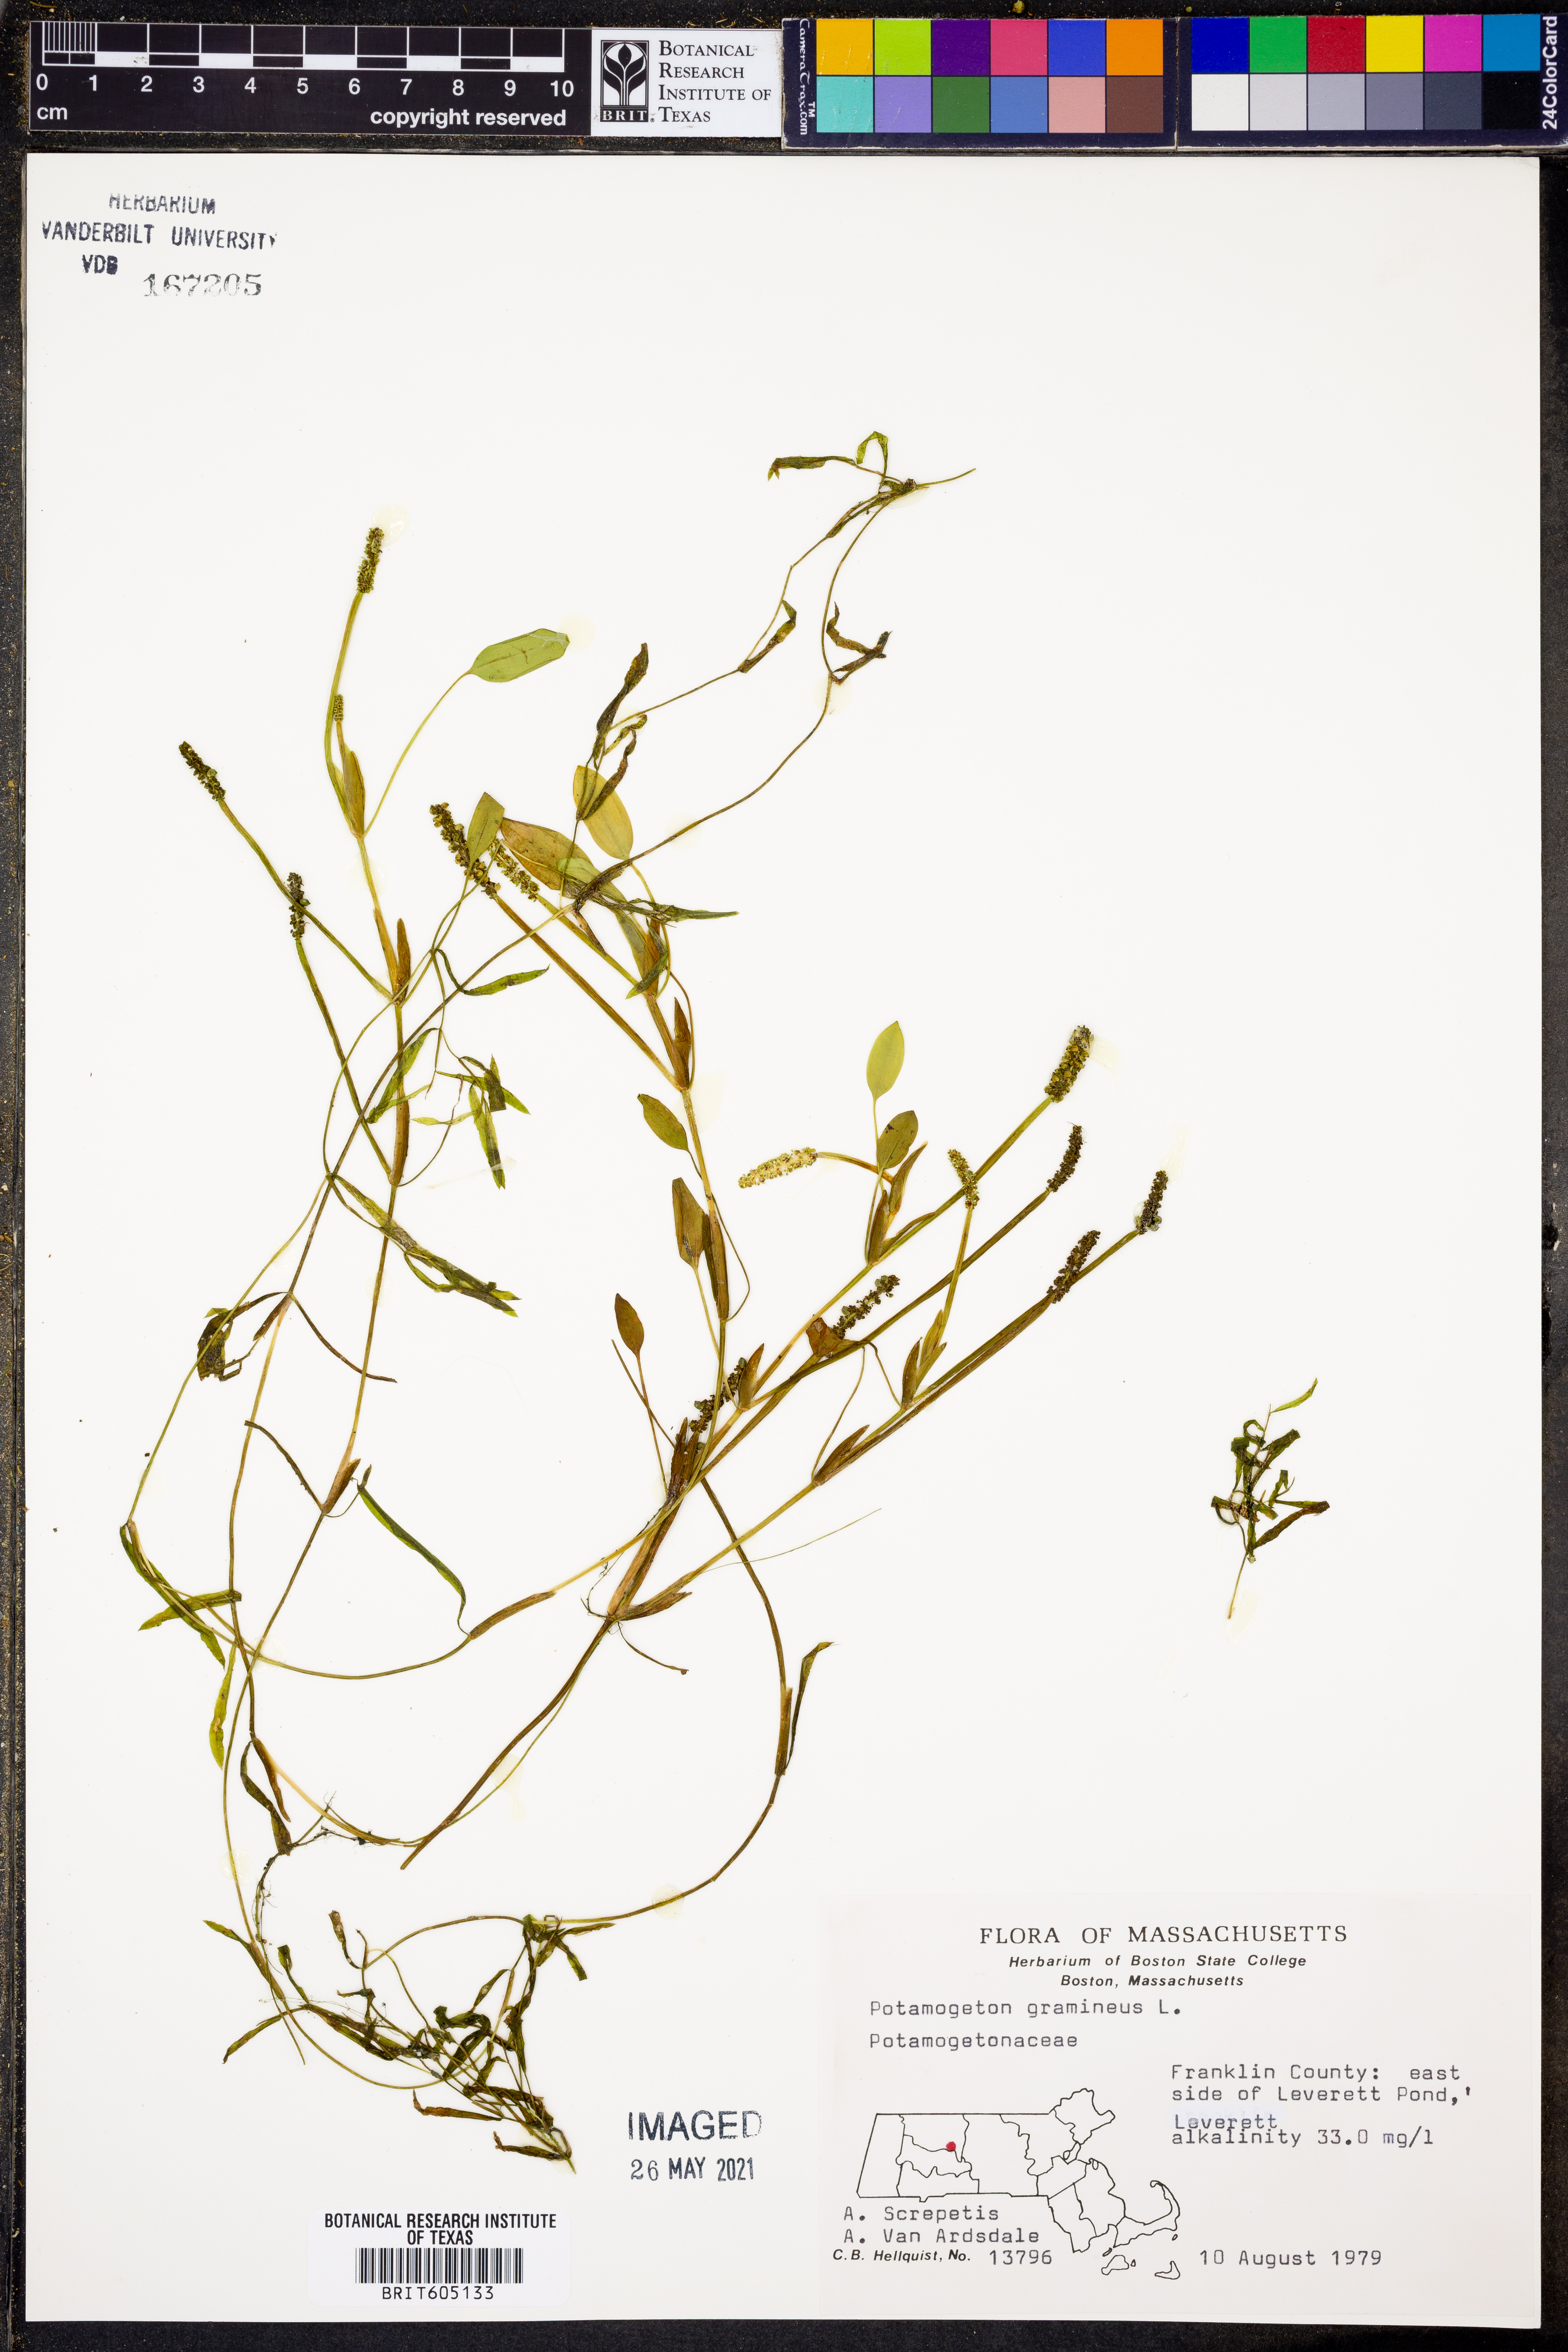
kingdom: Plantae
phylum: Tracheophyta
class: Liliopsida
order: Alismatales
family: Potamogetonaceae
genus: Potamogeton
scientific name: Potamogeton gramineus
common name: Various-leaved pondweed
